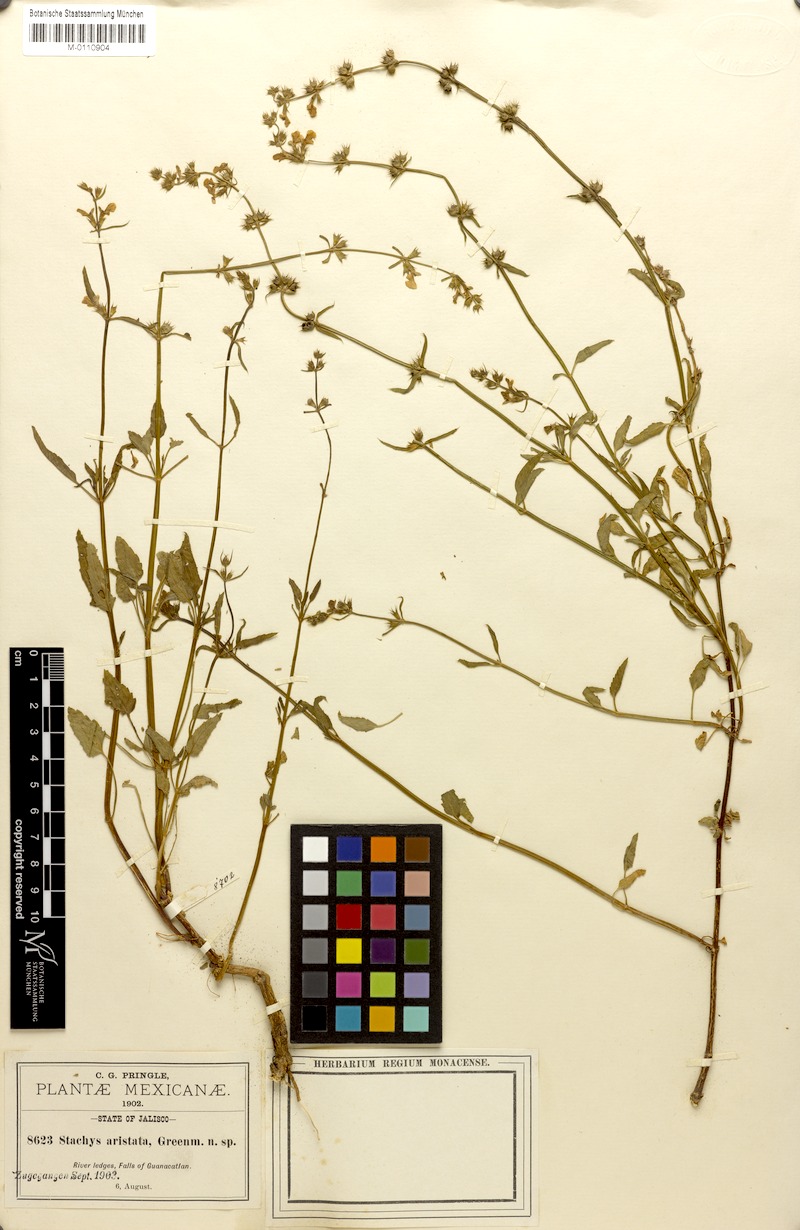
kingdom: Plantae
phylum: Tracheophyta
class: Magnoliopsida
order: Lamiales
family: Lamiaceae
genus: Stachys
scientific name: Stachys aristata
